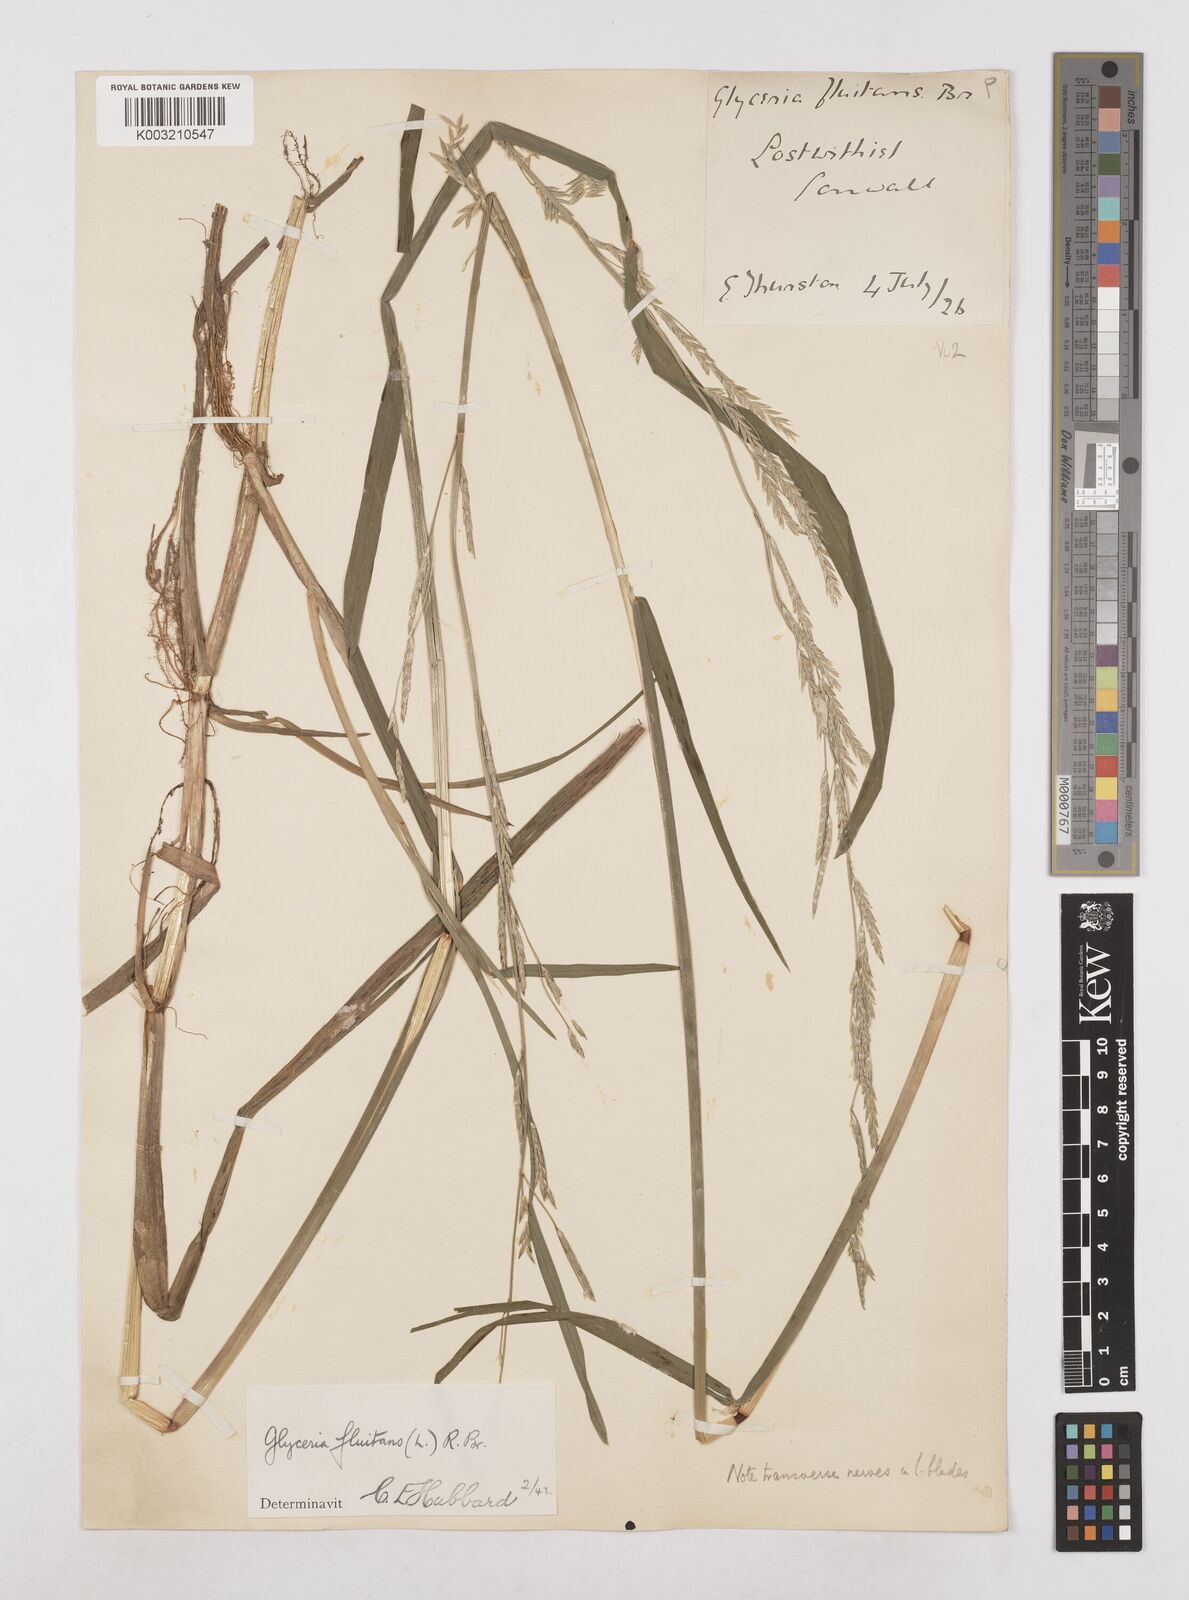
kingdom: Plantae
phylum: Tracheophyta
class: Liliopsida
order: Poales
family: Poaceae
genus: Glyceria
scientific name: Glyceria fluitans
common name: Floating sweet-grass
